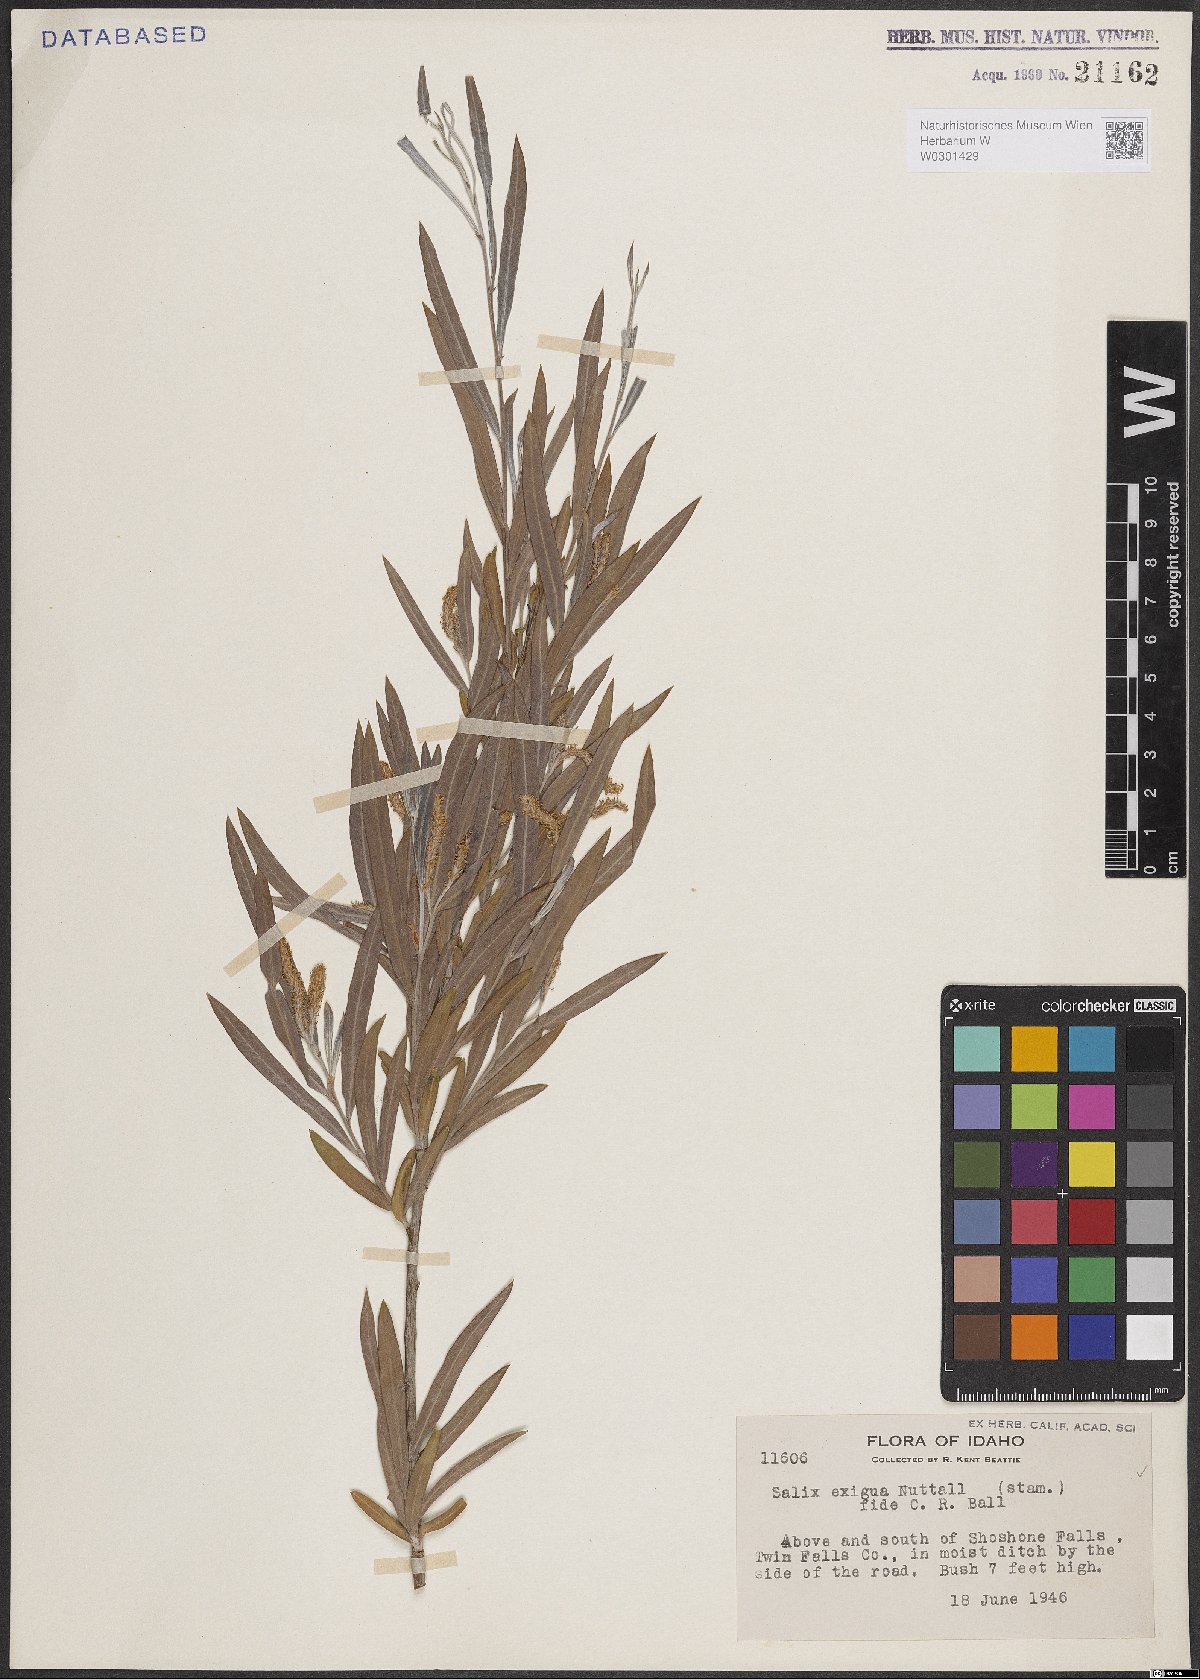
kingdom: Plantae
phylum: Tracheophyta
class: Magnoliopsida
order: Malpighiales
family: Salicaceae
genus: Salix
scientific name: Salix exigua
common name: Coyote willow
